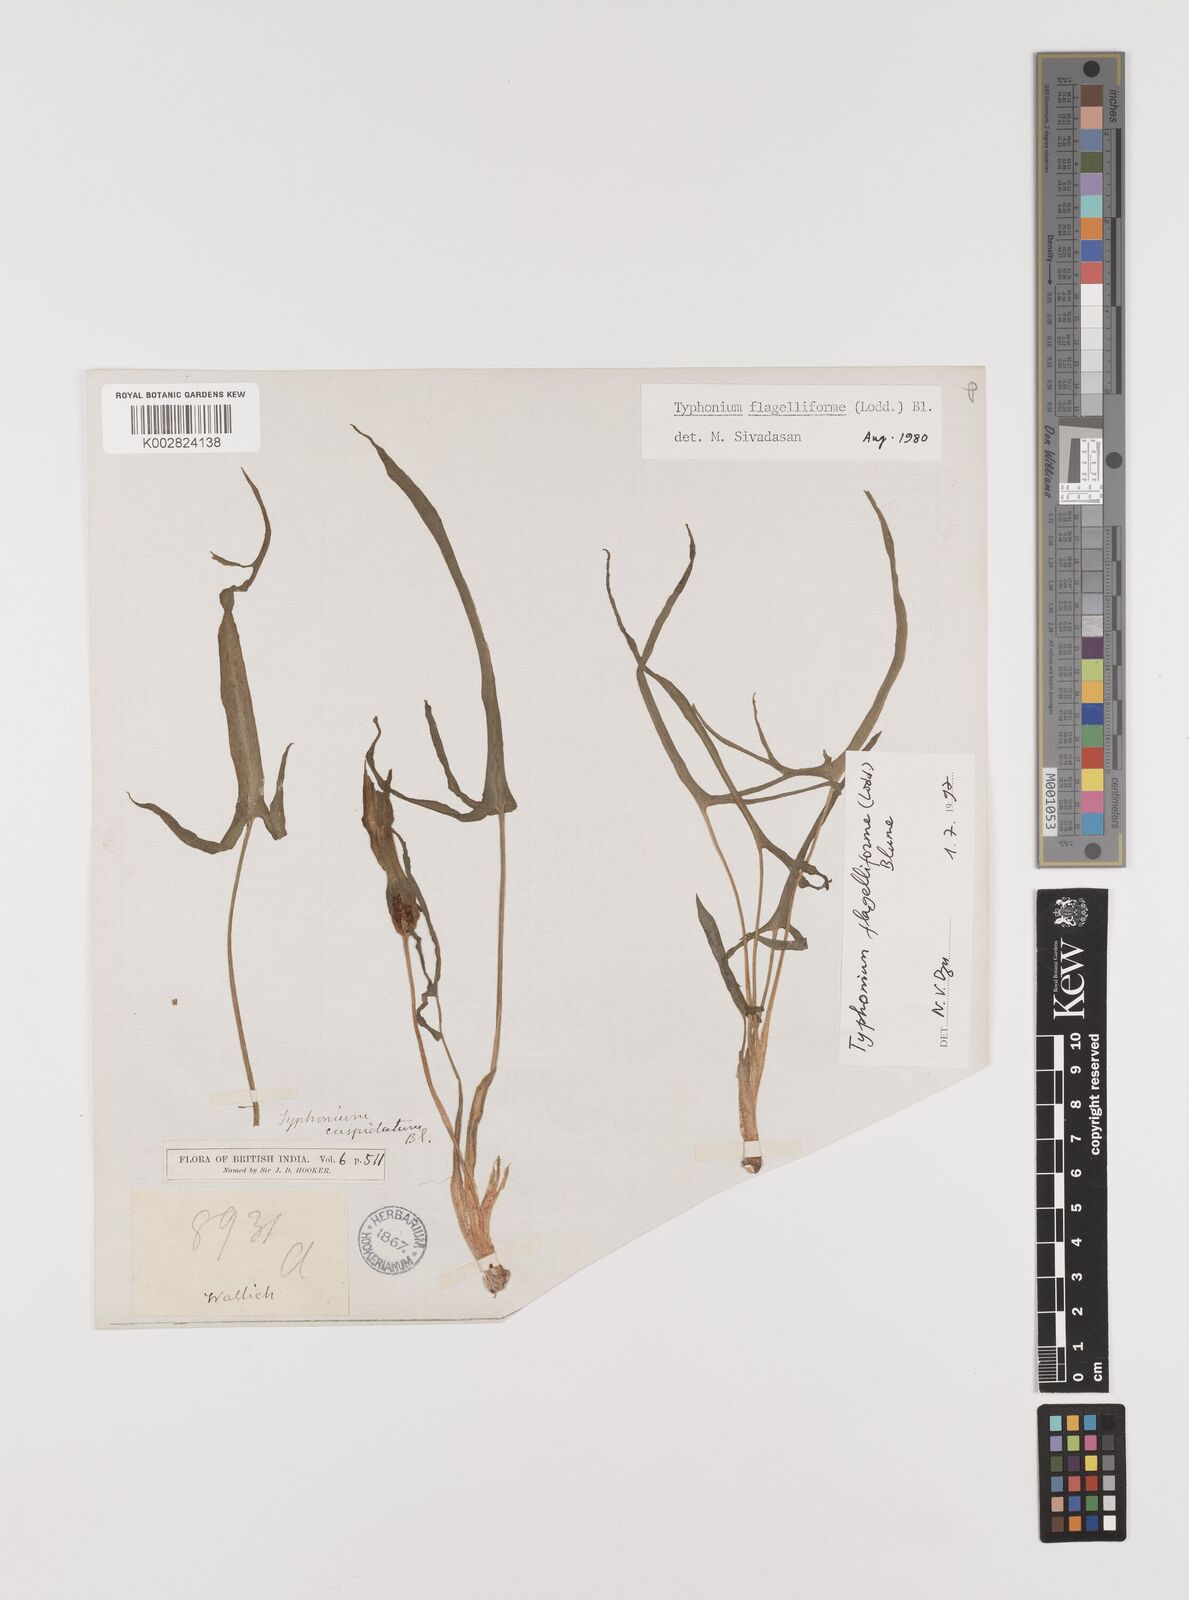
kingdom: Plantae
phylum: Tracheophyta
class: Liliopsida
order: Alismatales
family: Araceae
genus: Typhonium
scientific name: Typhonium flagelliforme
